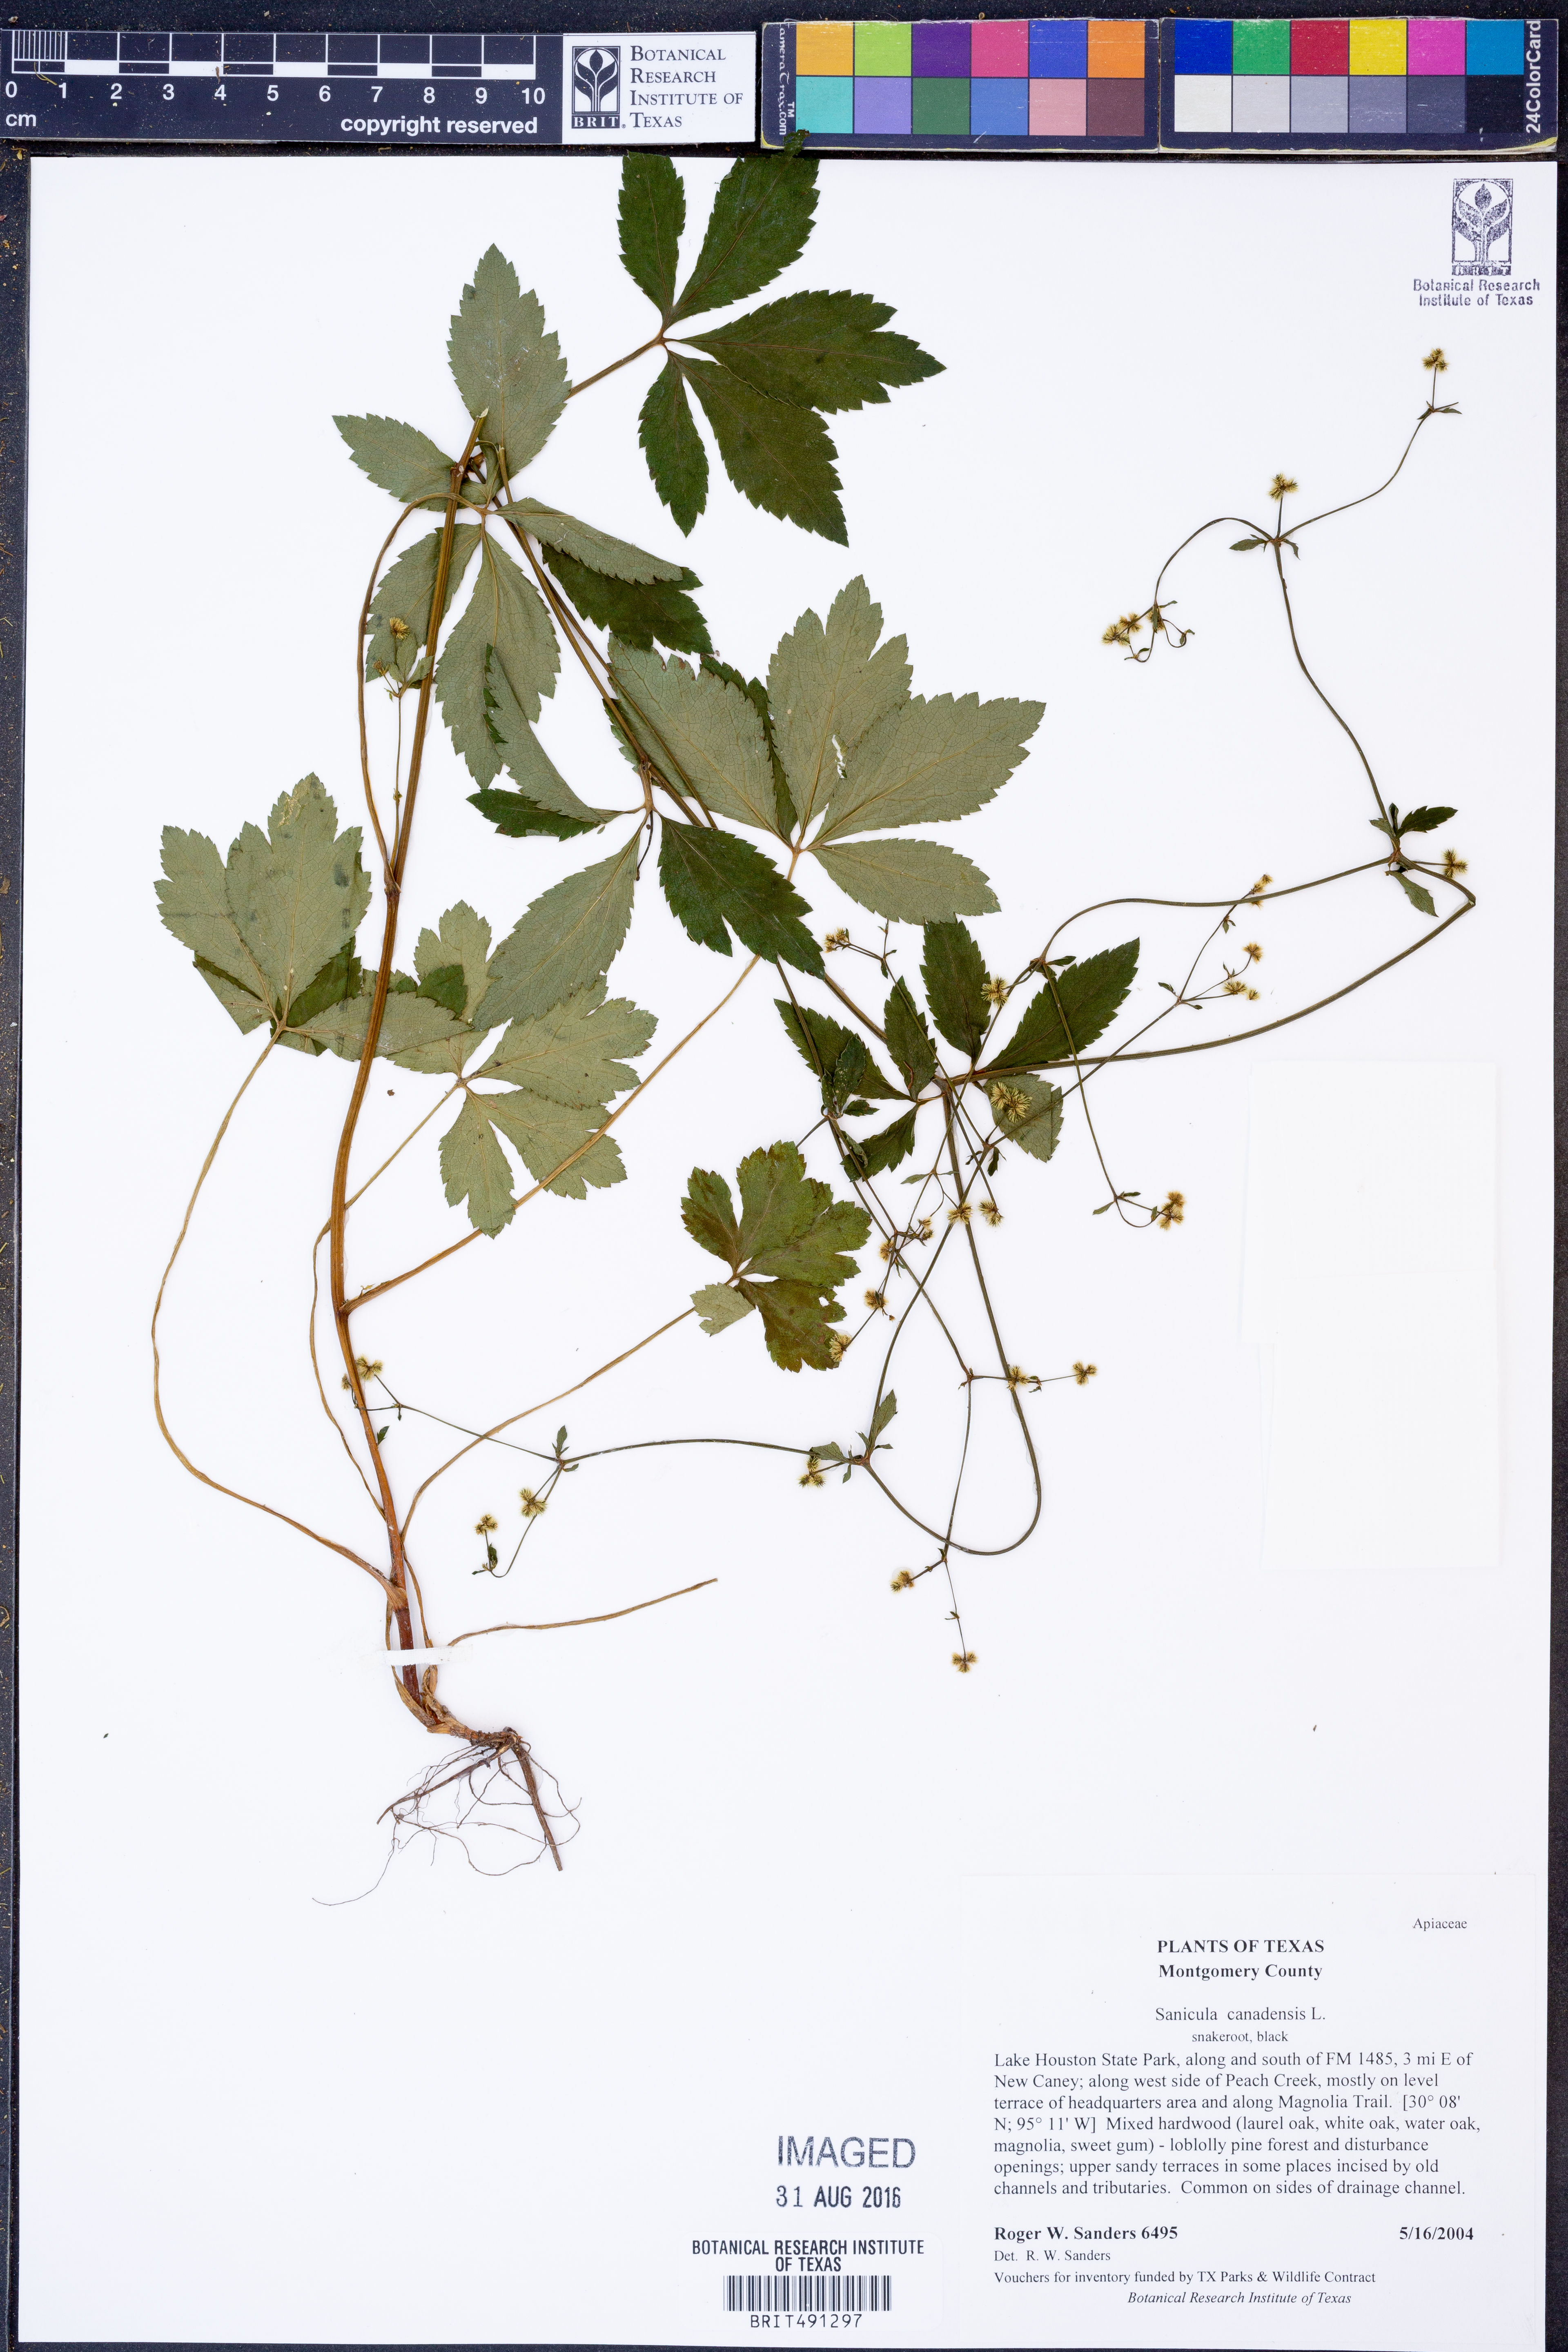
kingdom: Plantae
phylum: Tracheophyta
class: Magnoliopsida
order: Apiales
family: Apiaceae
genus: Sanicula
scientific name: Sanicula canadensis
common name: Canada sanicle
